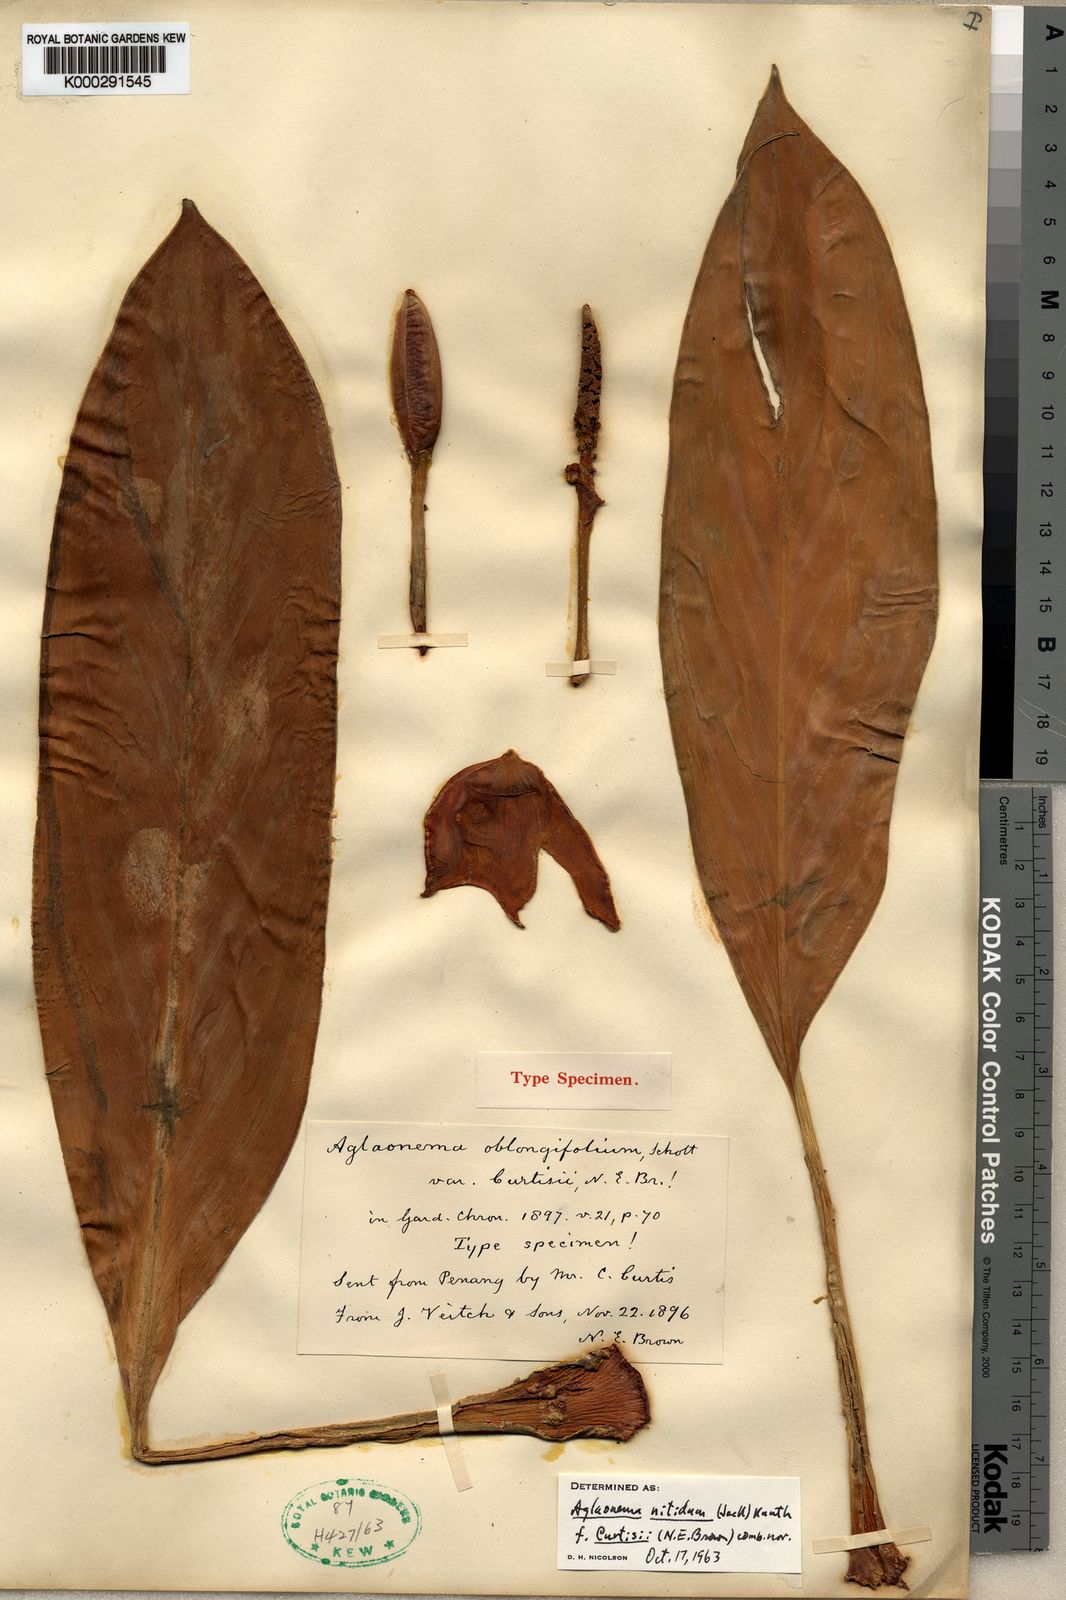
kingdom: Plantae
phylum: Tracheophyta
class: Liliopsida
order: Alismatales
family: Araceae
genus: Aglaonema
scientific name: Aglaonema nitidum
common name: Aglaonema aroid
